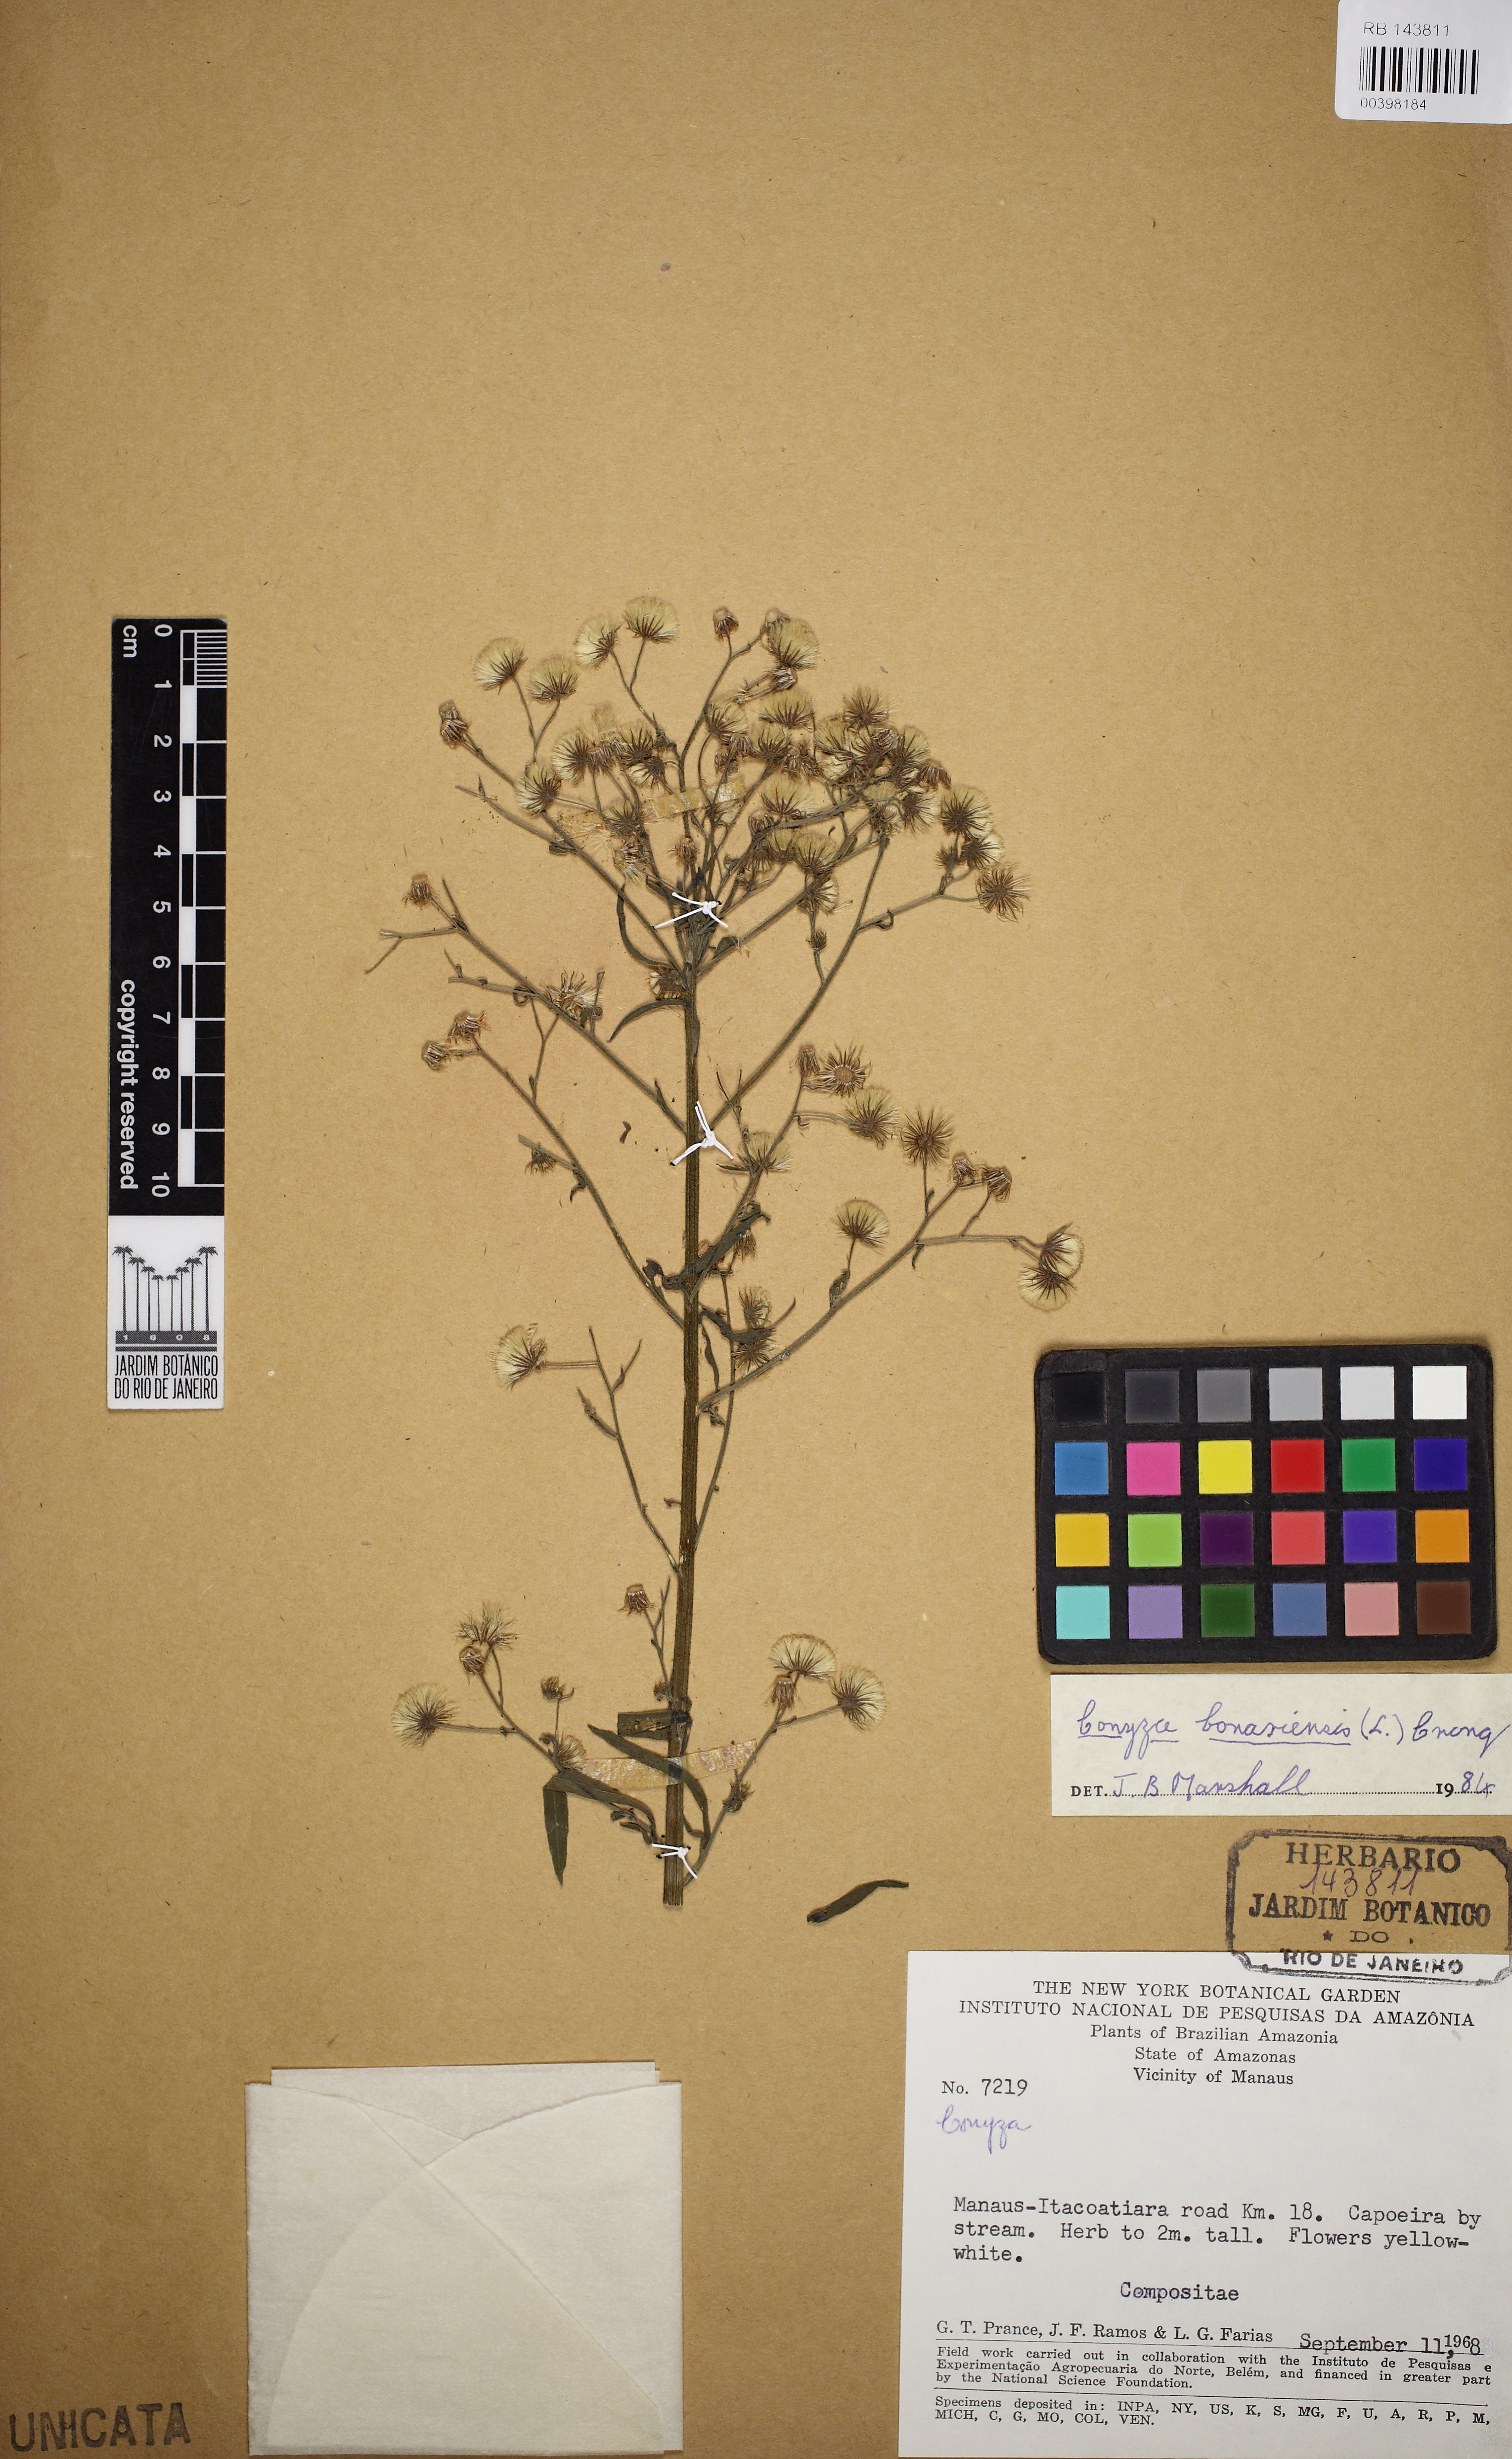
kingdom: Plantae
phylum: Tracheophyta
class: Magnoliopsida
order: Asterales
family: Asteraceae
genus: Erigeron
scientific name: Erigeron bonariensis
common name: Argentine fleabane
